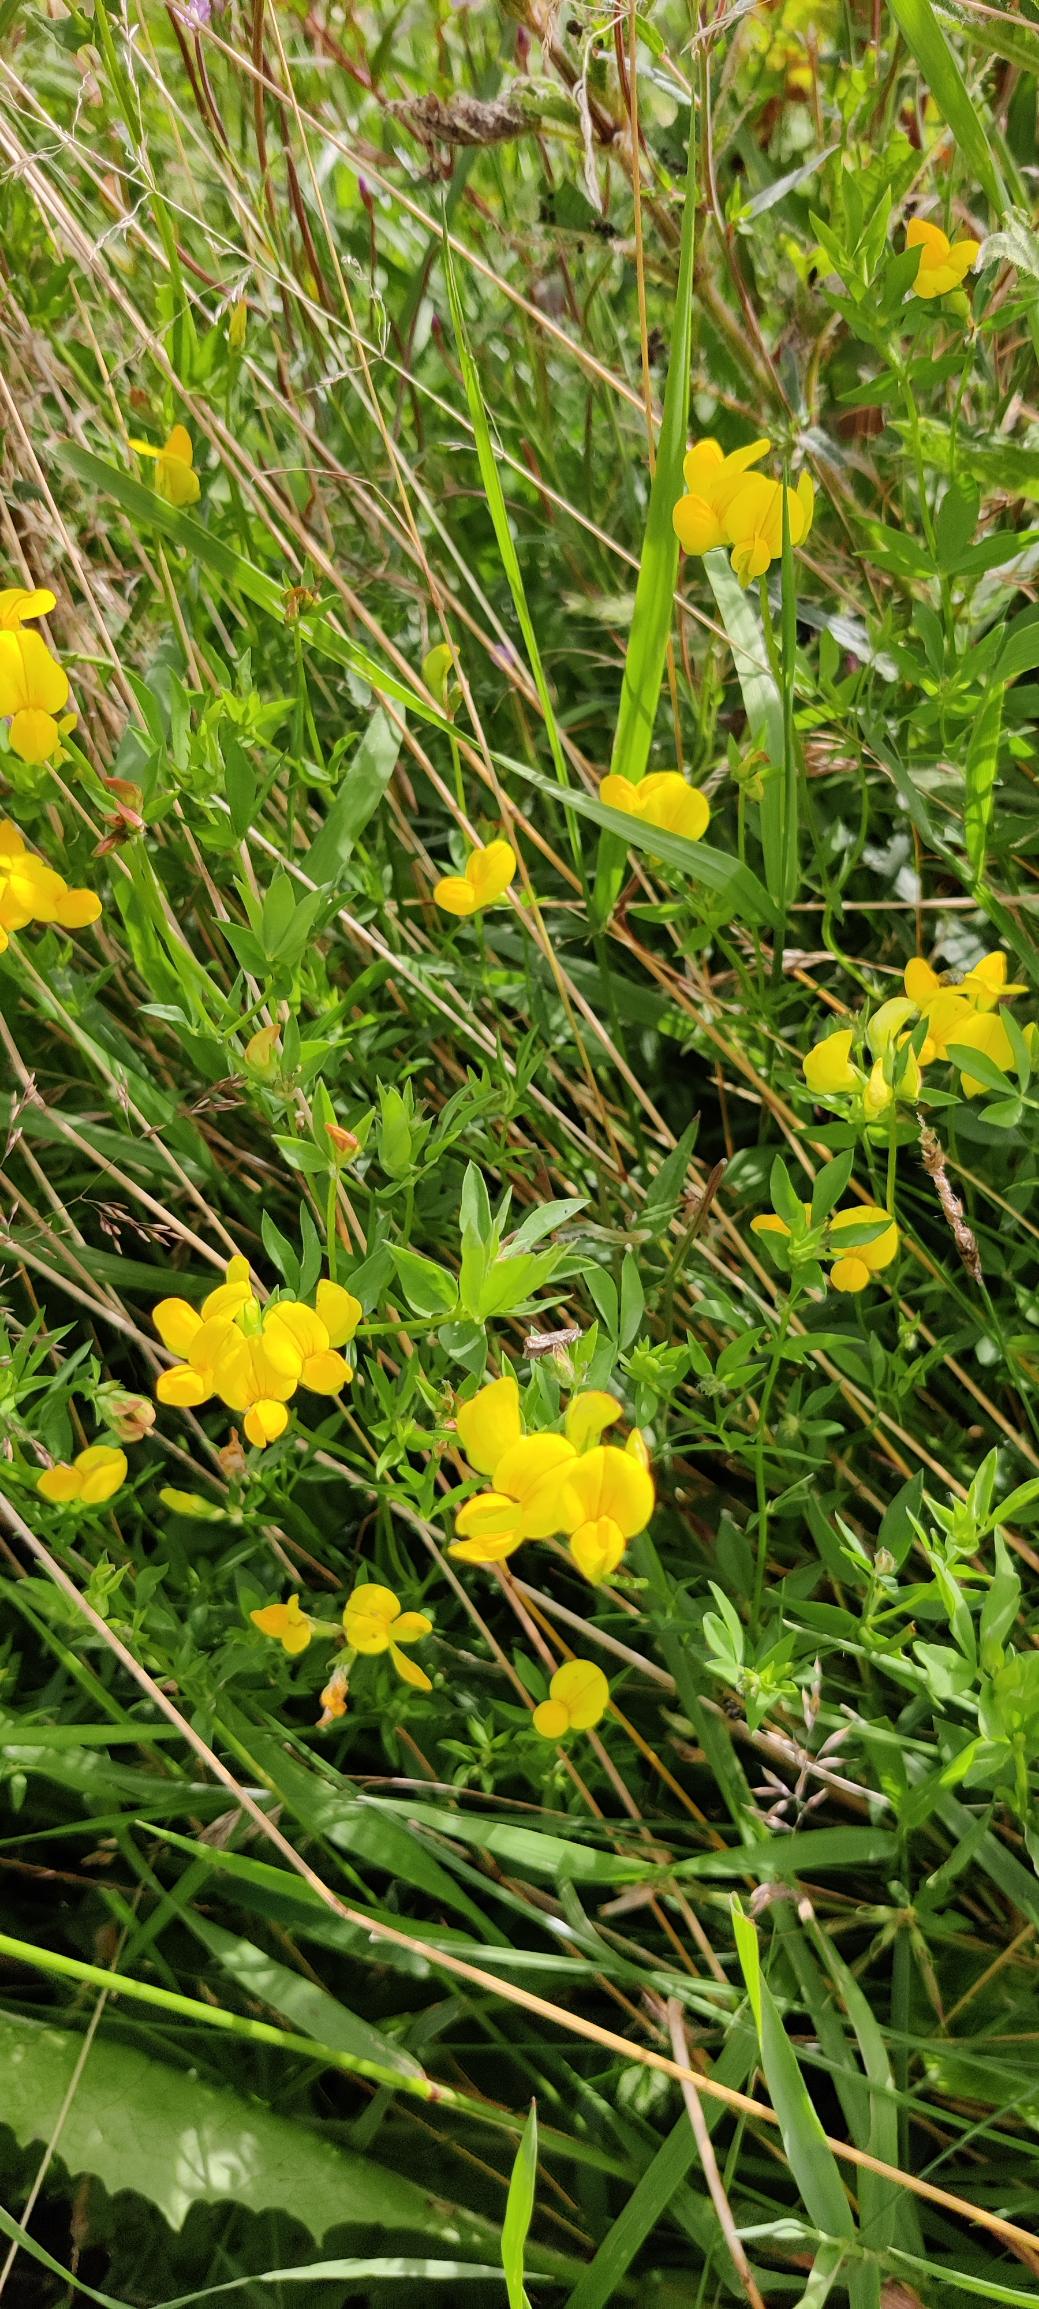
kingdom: Plantae
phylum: Tracheophyta
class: Magnoliopsida
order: Fabales
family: Fabaceae
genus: Lotus
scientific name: Lotus corniculatus
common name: Almindelig kællingetand
